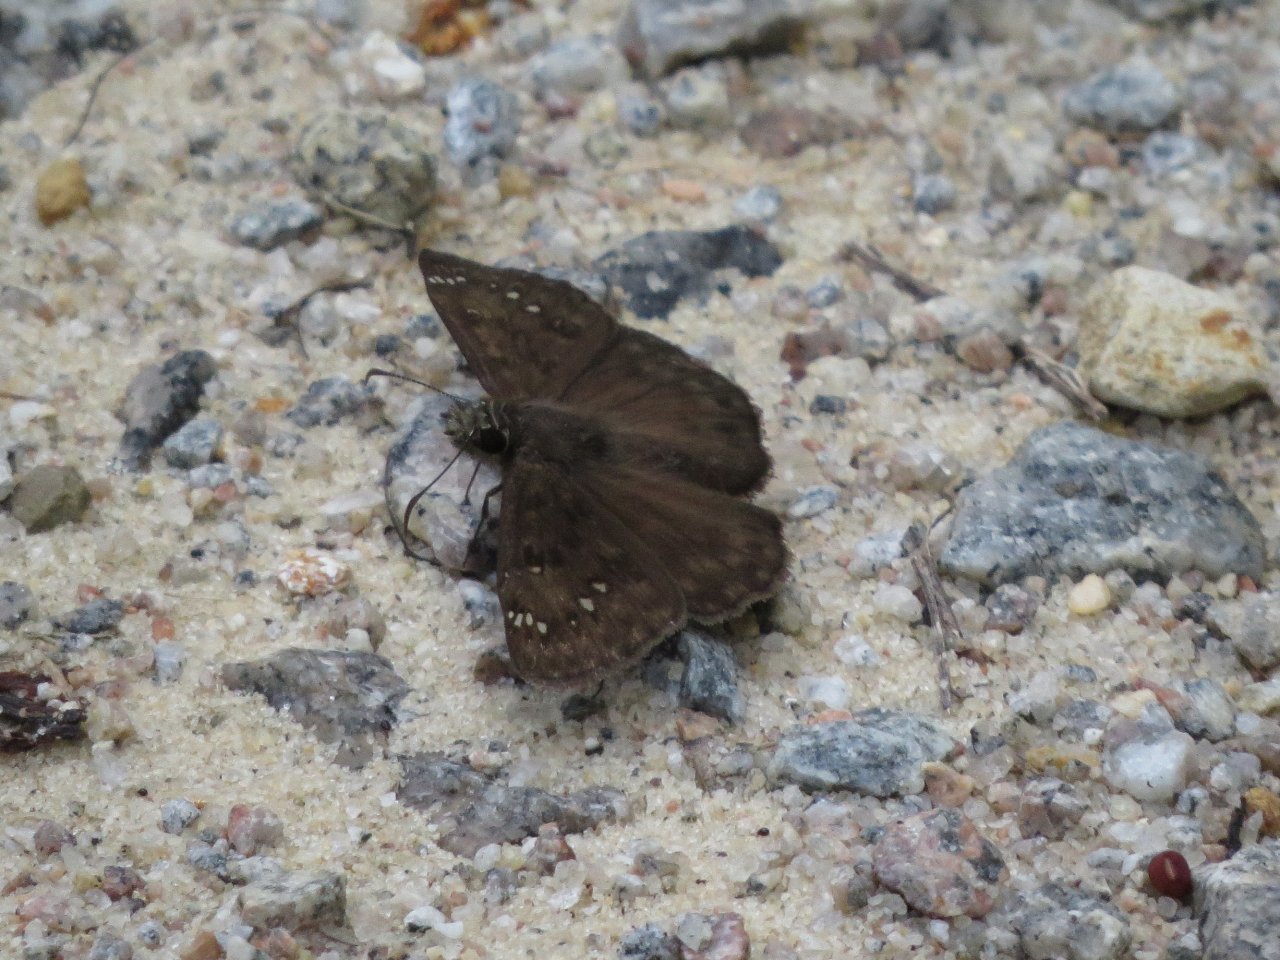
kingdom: Animalia
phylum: Arthropoda
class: Insecta
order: Lepidoptera
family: Hesperiidae
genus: Gesta
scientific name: Gesta
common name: Horace's Duskywing
